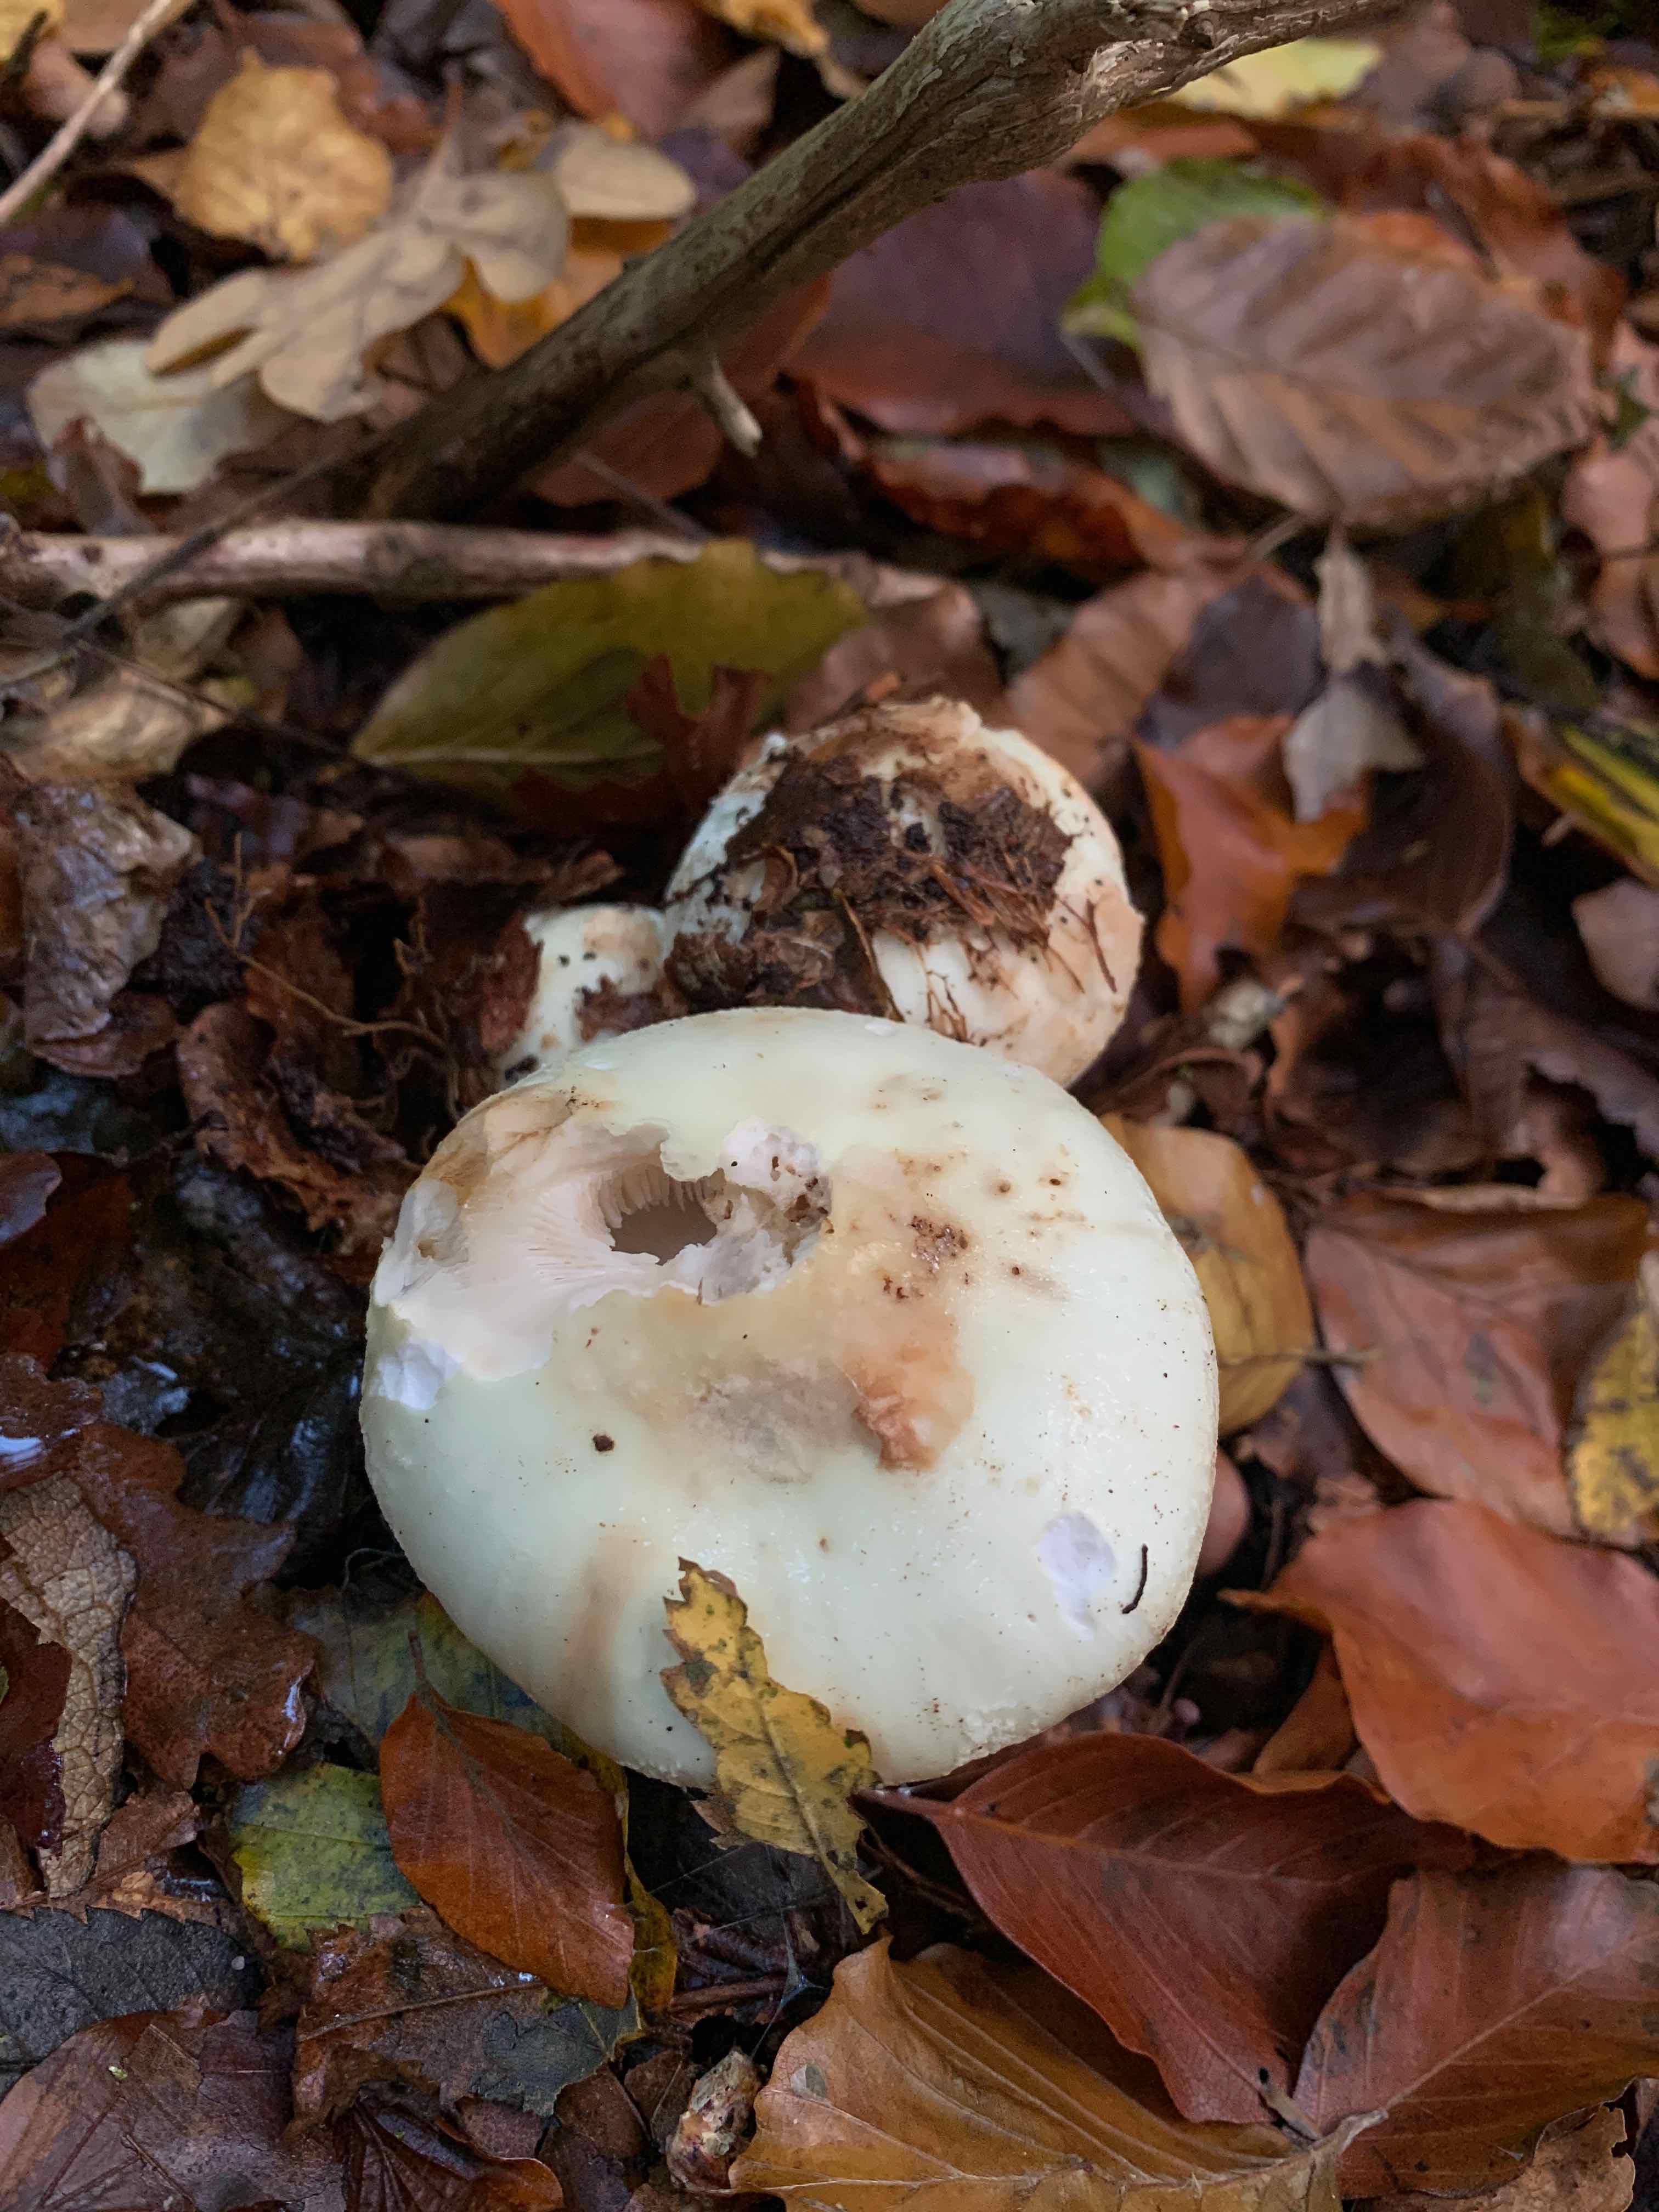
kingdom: Fungi
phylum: Basidiomycota
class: Agaricomycetes
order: Agaricales
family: Amanitaceae
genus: Amanita
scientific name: Amanita citrina
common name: kugleknoldet fluesvamp
